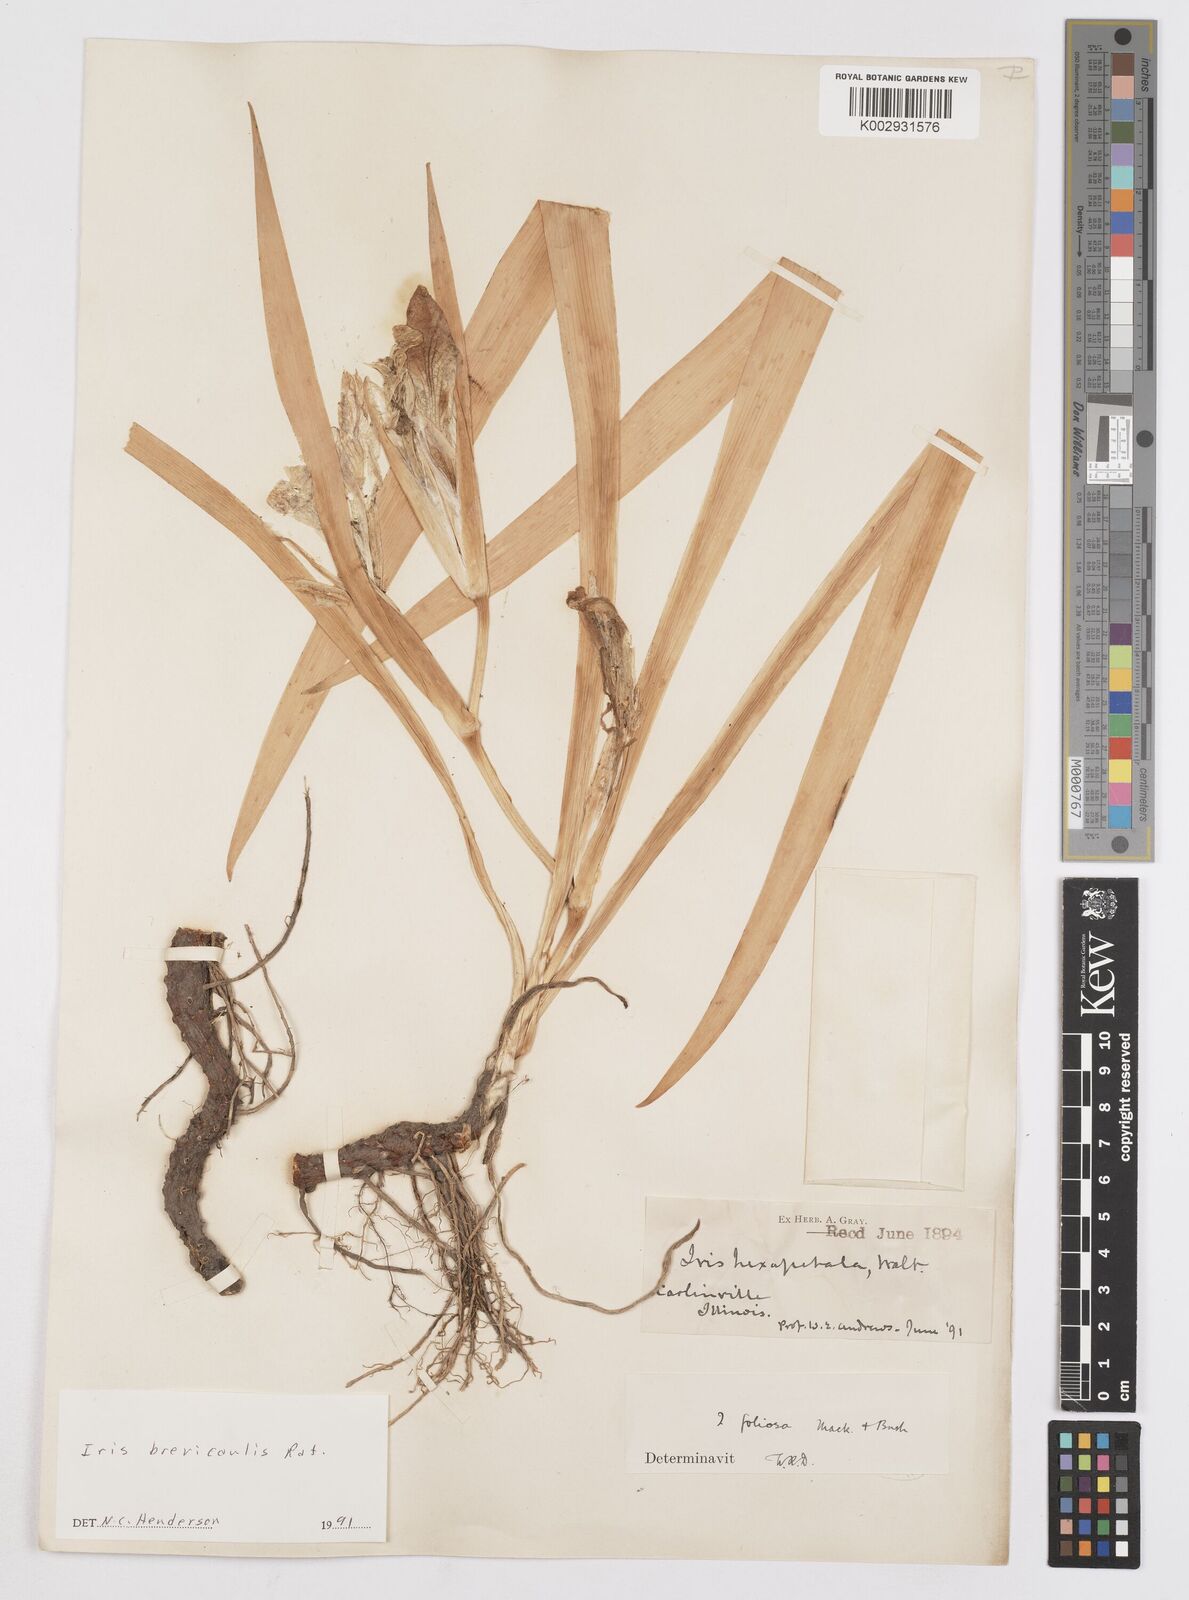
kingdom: Plantae
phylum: Tracheophyta
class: Liliopsida
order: Asparagales
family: Iridaceae
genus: Iris
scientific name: Iris brevicaulis
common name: Zigzag iris
